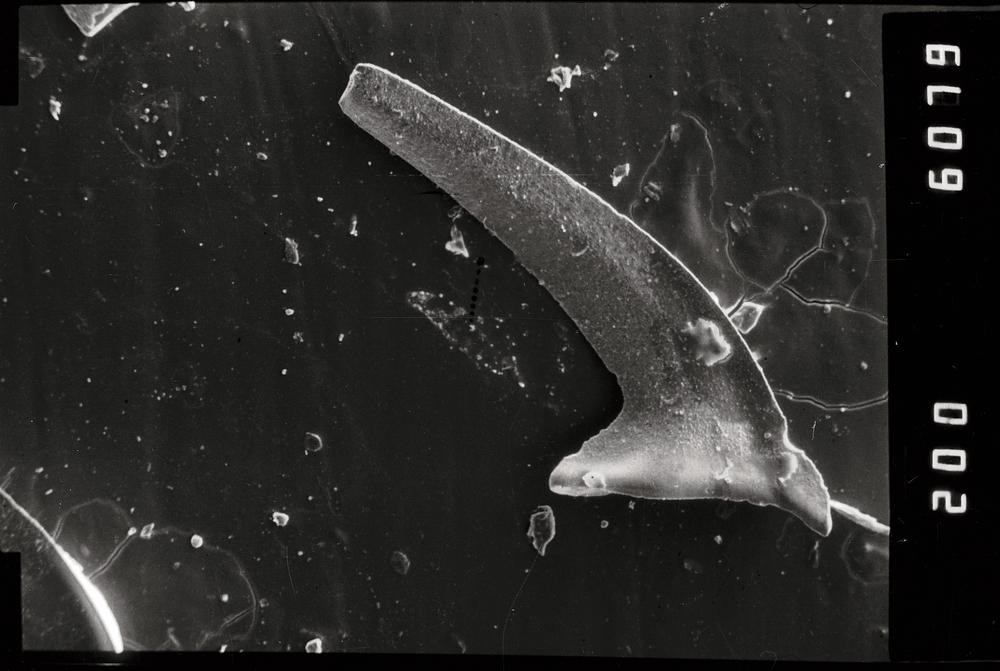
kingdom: Animalia
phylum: Chordata
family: Acodontidae
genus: Tripodus
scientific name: Tripodus
